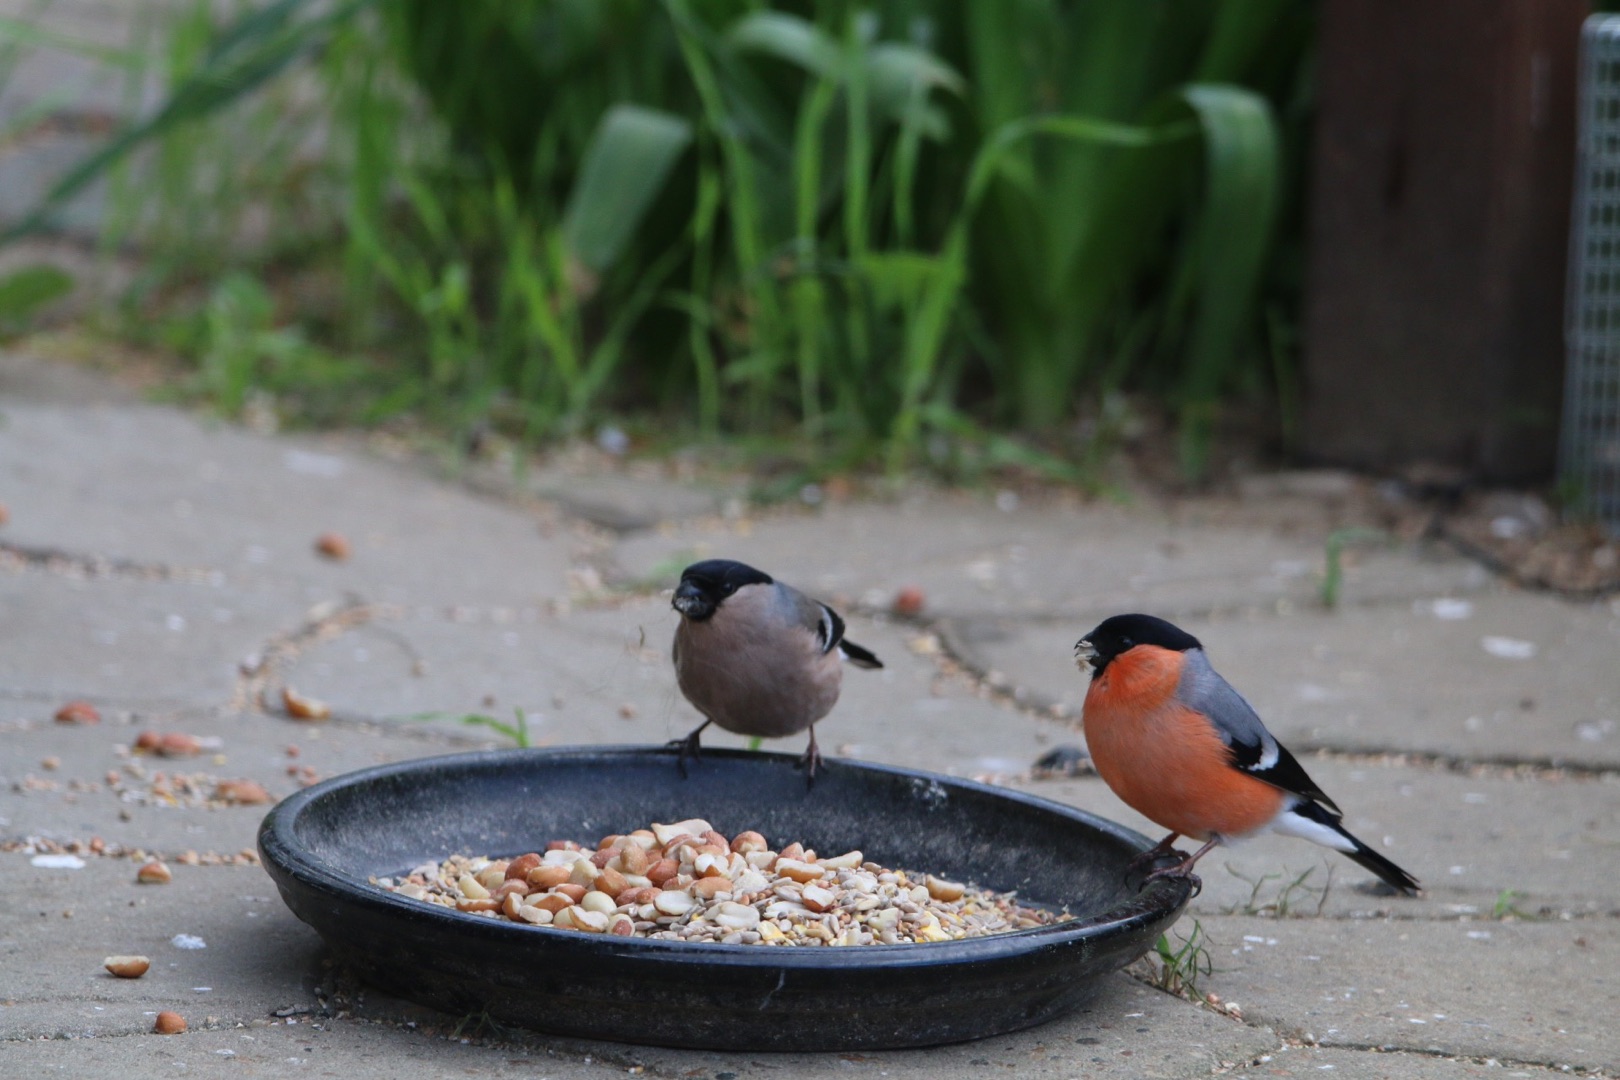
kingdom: Animalia
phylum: Chordata
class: Aves
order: Passeriformes
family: Fringillidae
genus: Pyrrhula
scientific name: Pyrrhula pyrrhula
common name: Dompap
